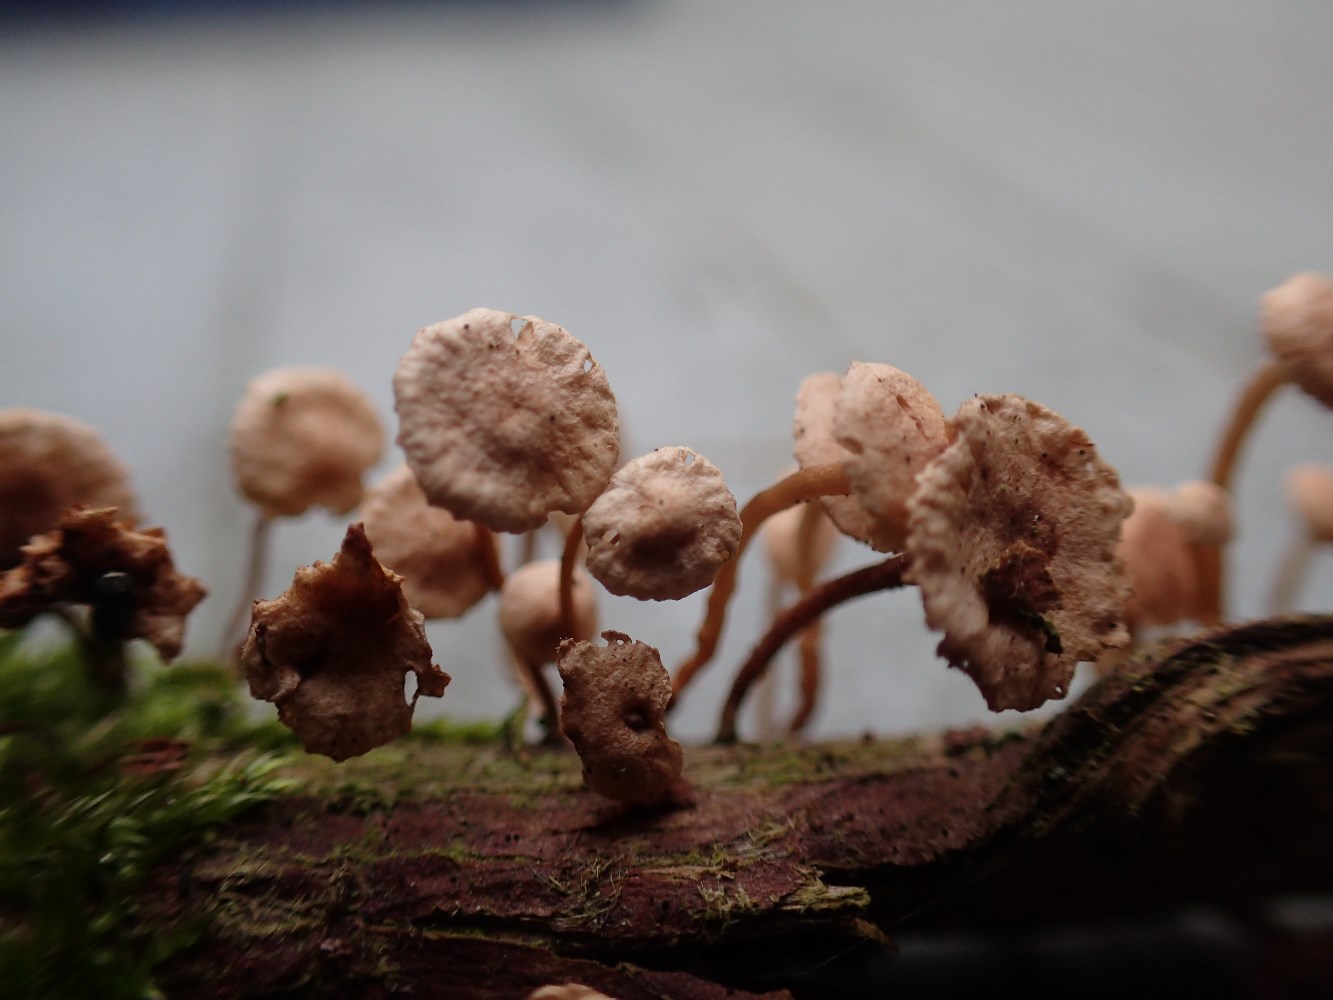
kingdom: Fungi
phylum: Basidiomycota
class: Agaricomycetes
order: Agaricales
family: Omphalotaceae
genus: Collybiopsis
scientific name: Collybiopsis ramealis
